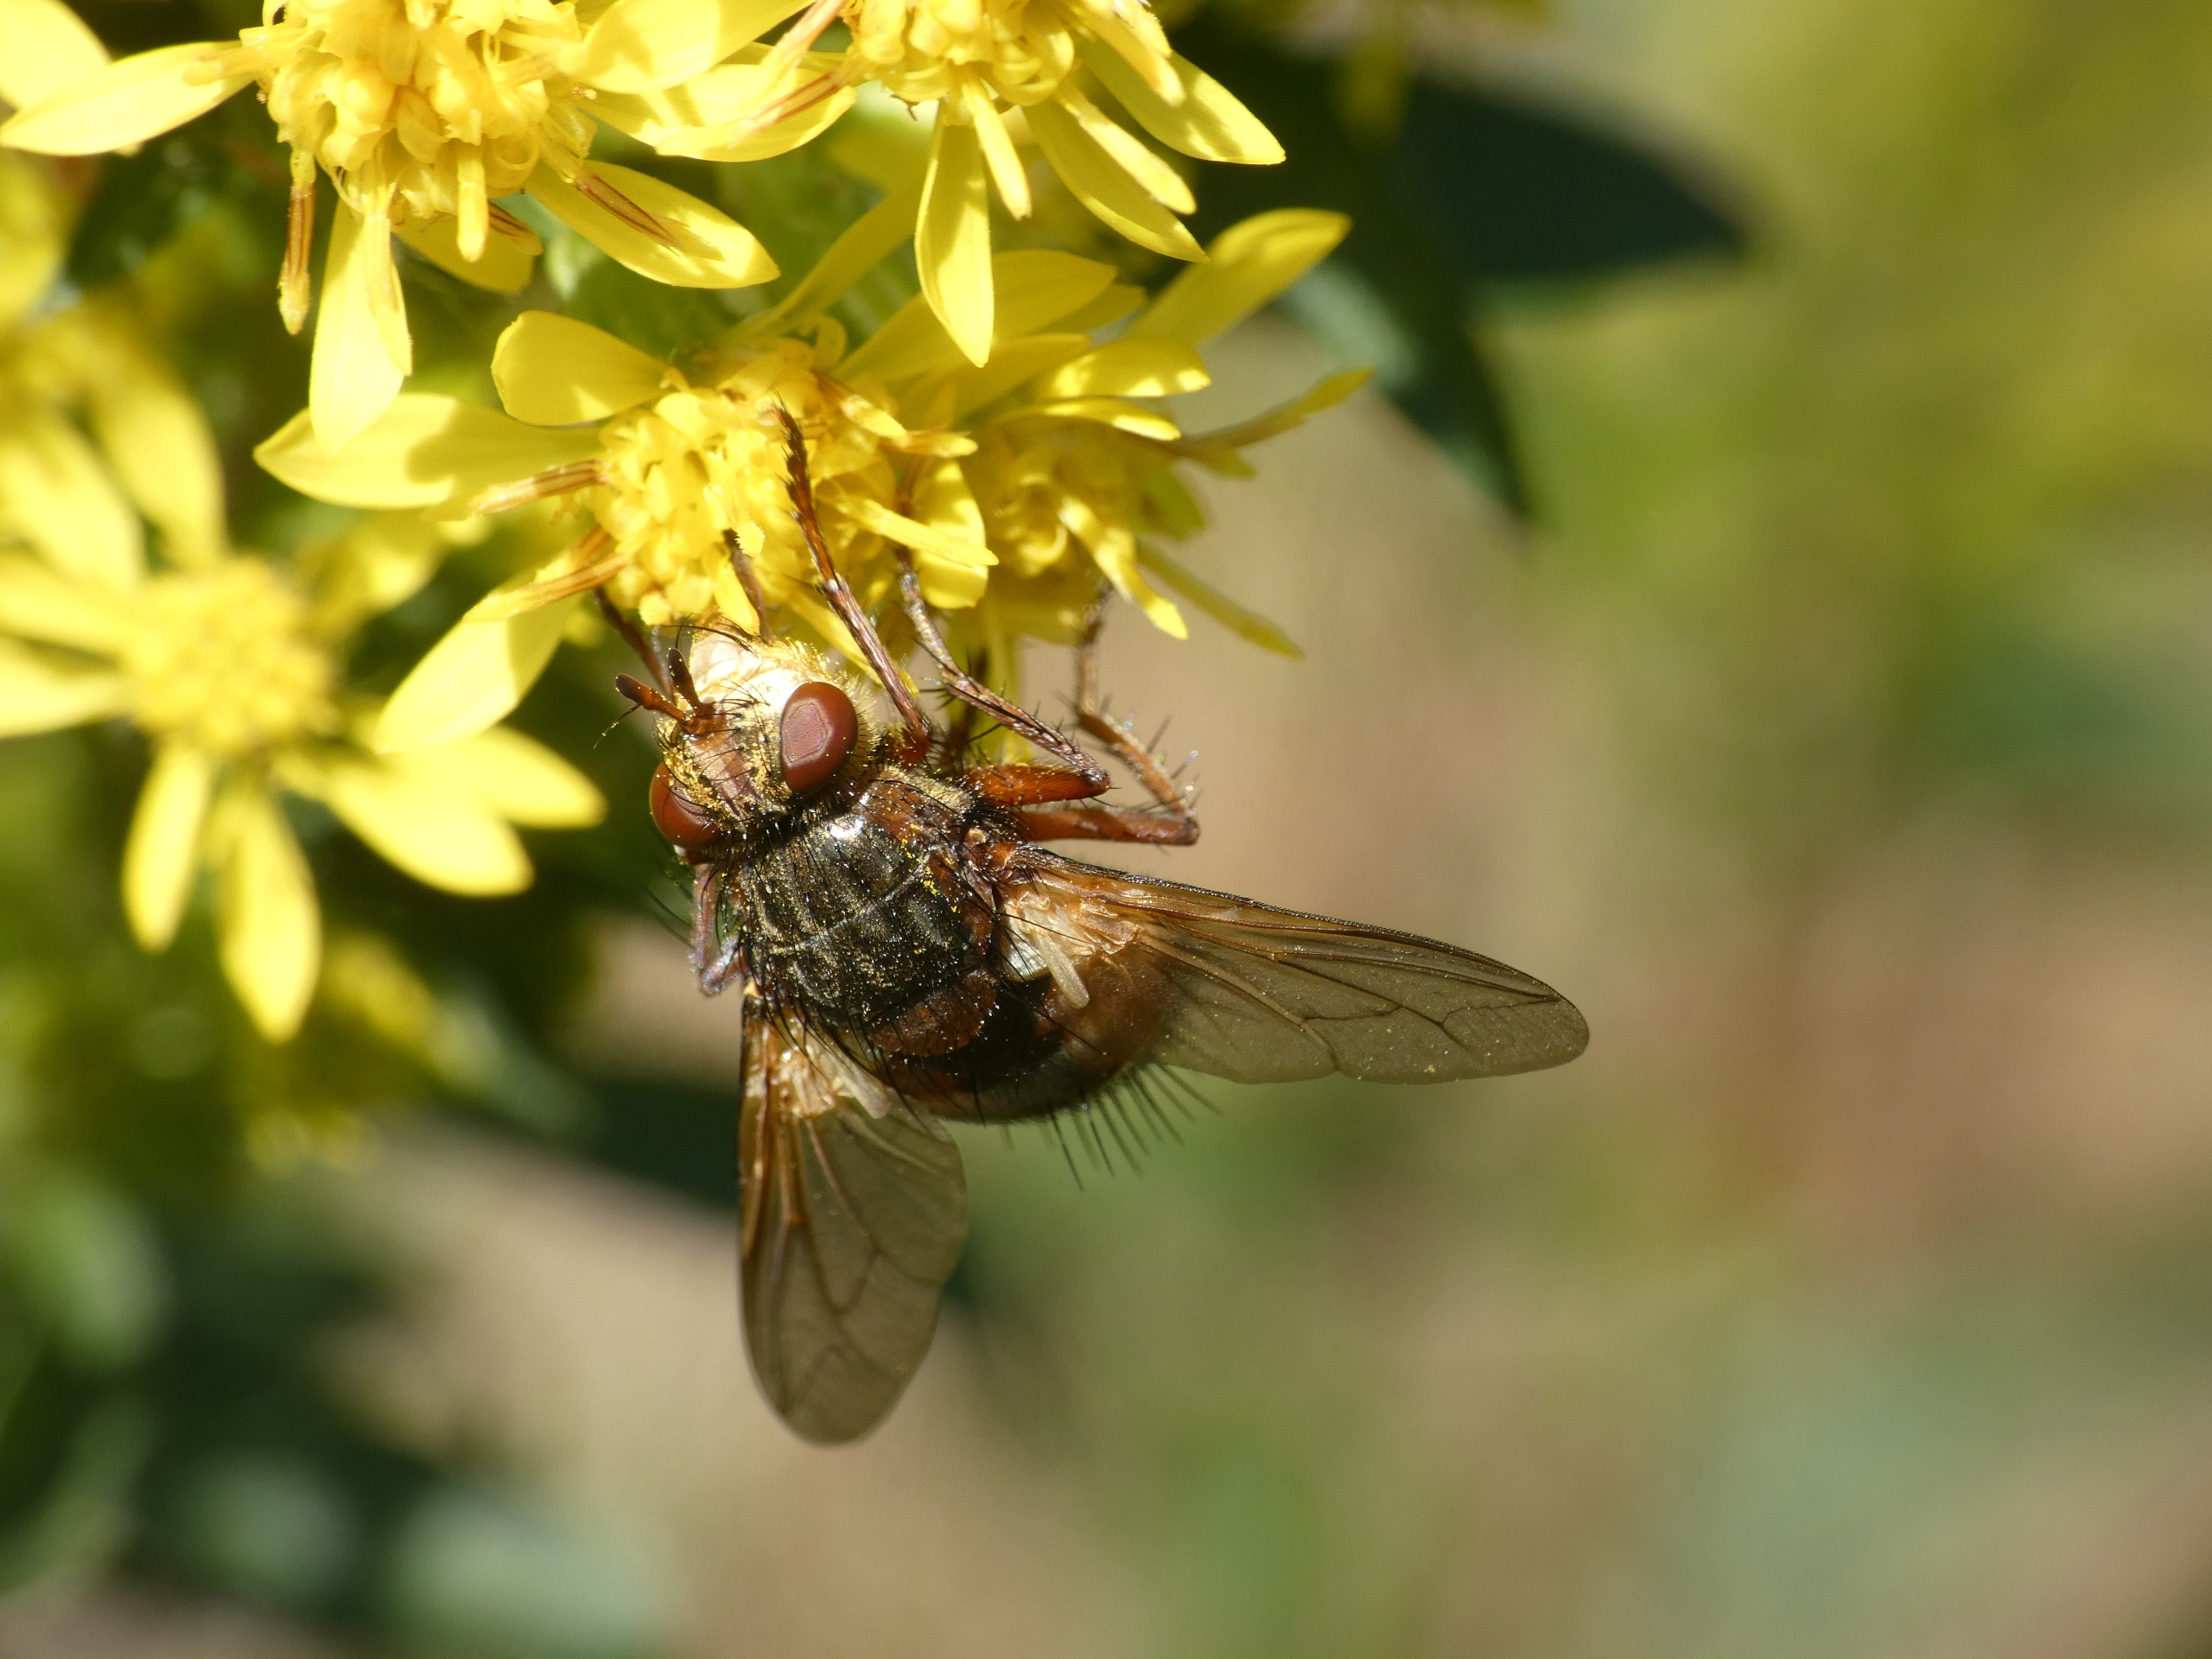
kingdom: Animalia
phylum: Arthropoda
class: Insecta
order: Diptera
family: Tachinidae
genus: Tachina
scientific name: Tachina fera
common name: Mellemfluen oskar
